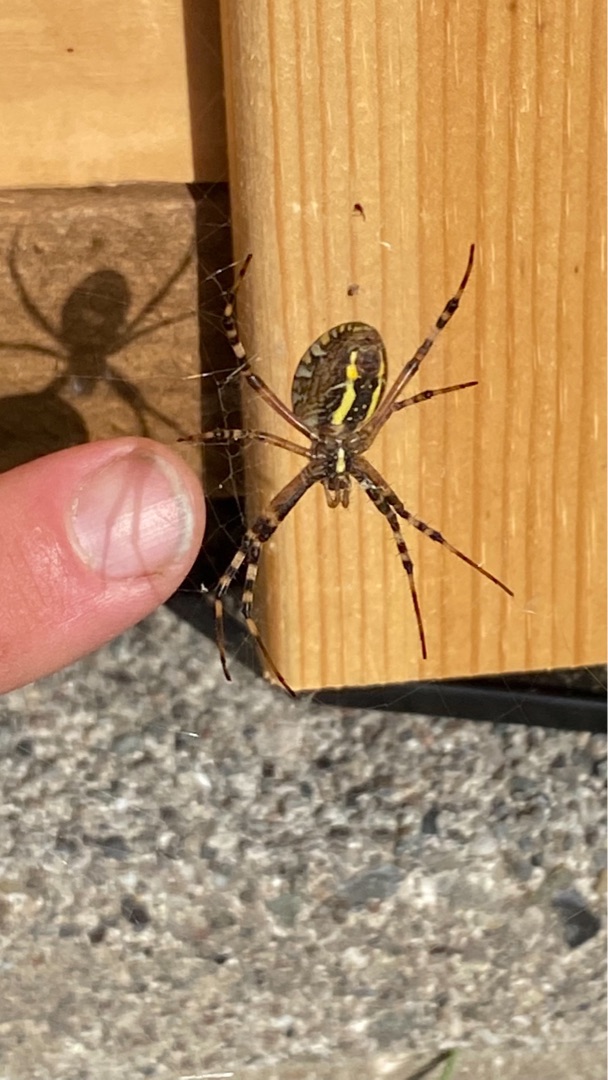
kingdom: Animalia
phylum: Arthropoda
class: Arachnida
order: Araneae
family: Araneidae
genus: Argiope
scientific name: Argiope bruennichi
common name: Hvepseedderkop
